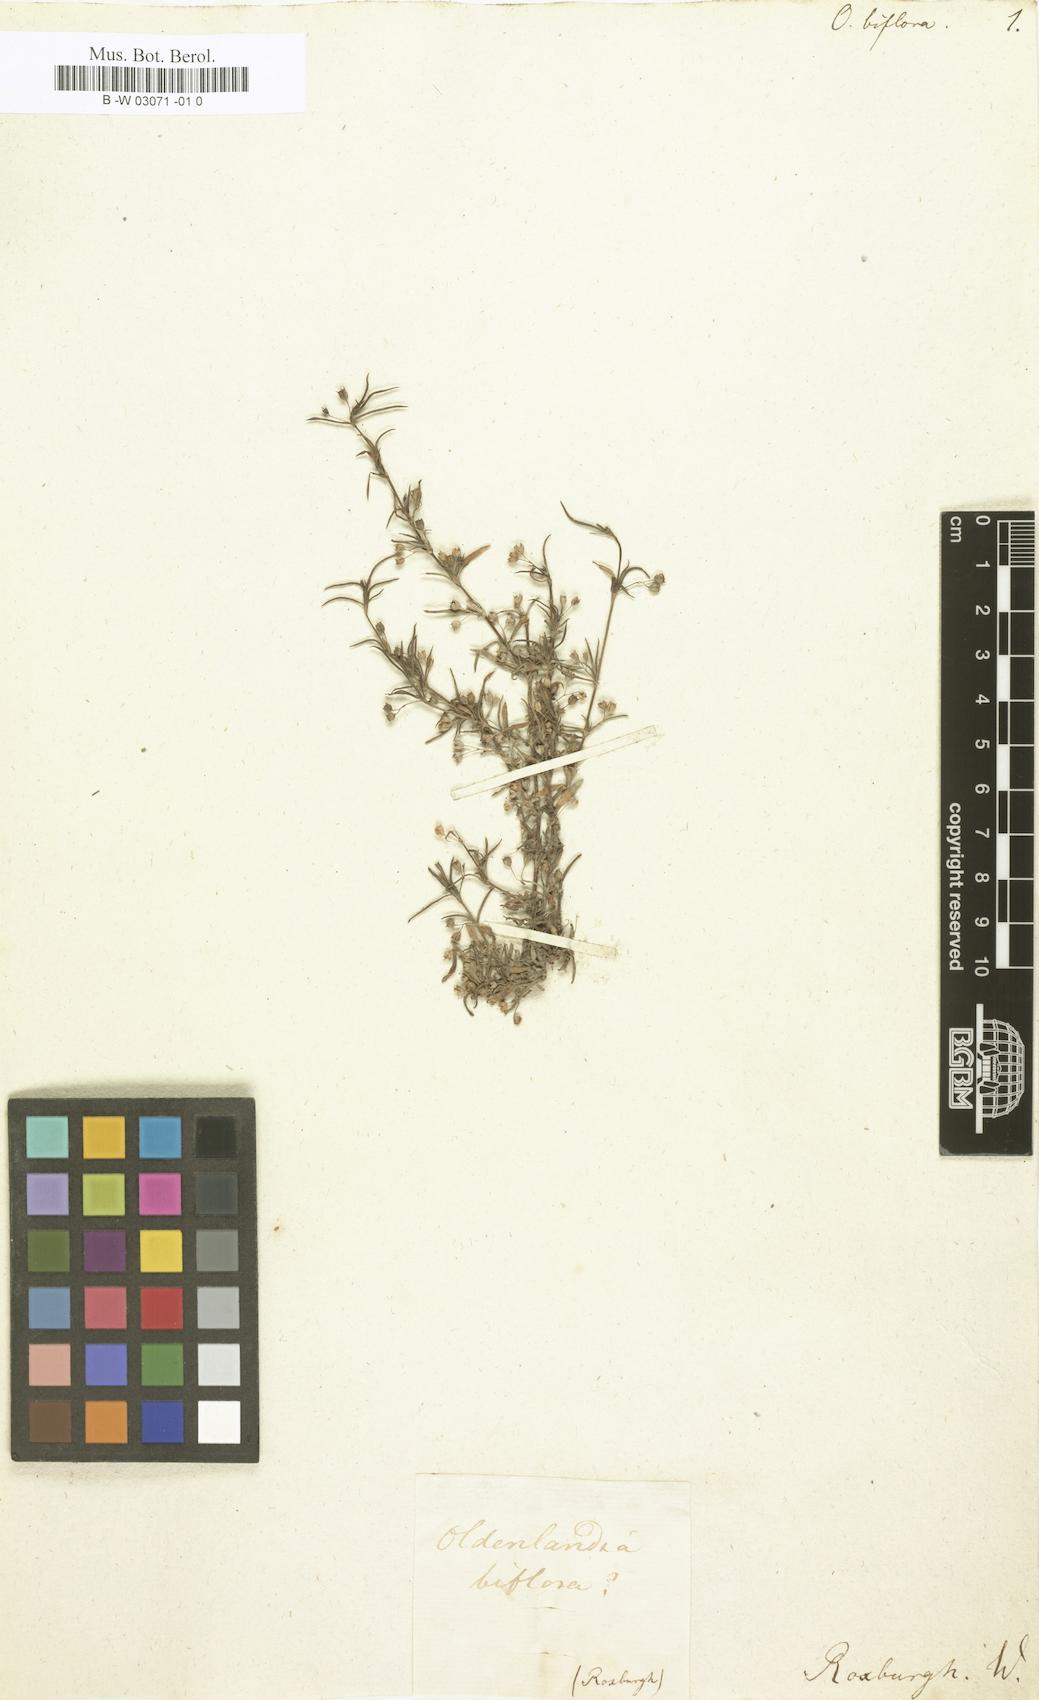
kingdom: Plantae
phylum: Tracheophyta
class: Magnoliopsida
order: Gentianales
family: Rubiaceae
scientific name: Rubiaceae
